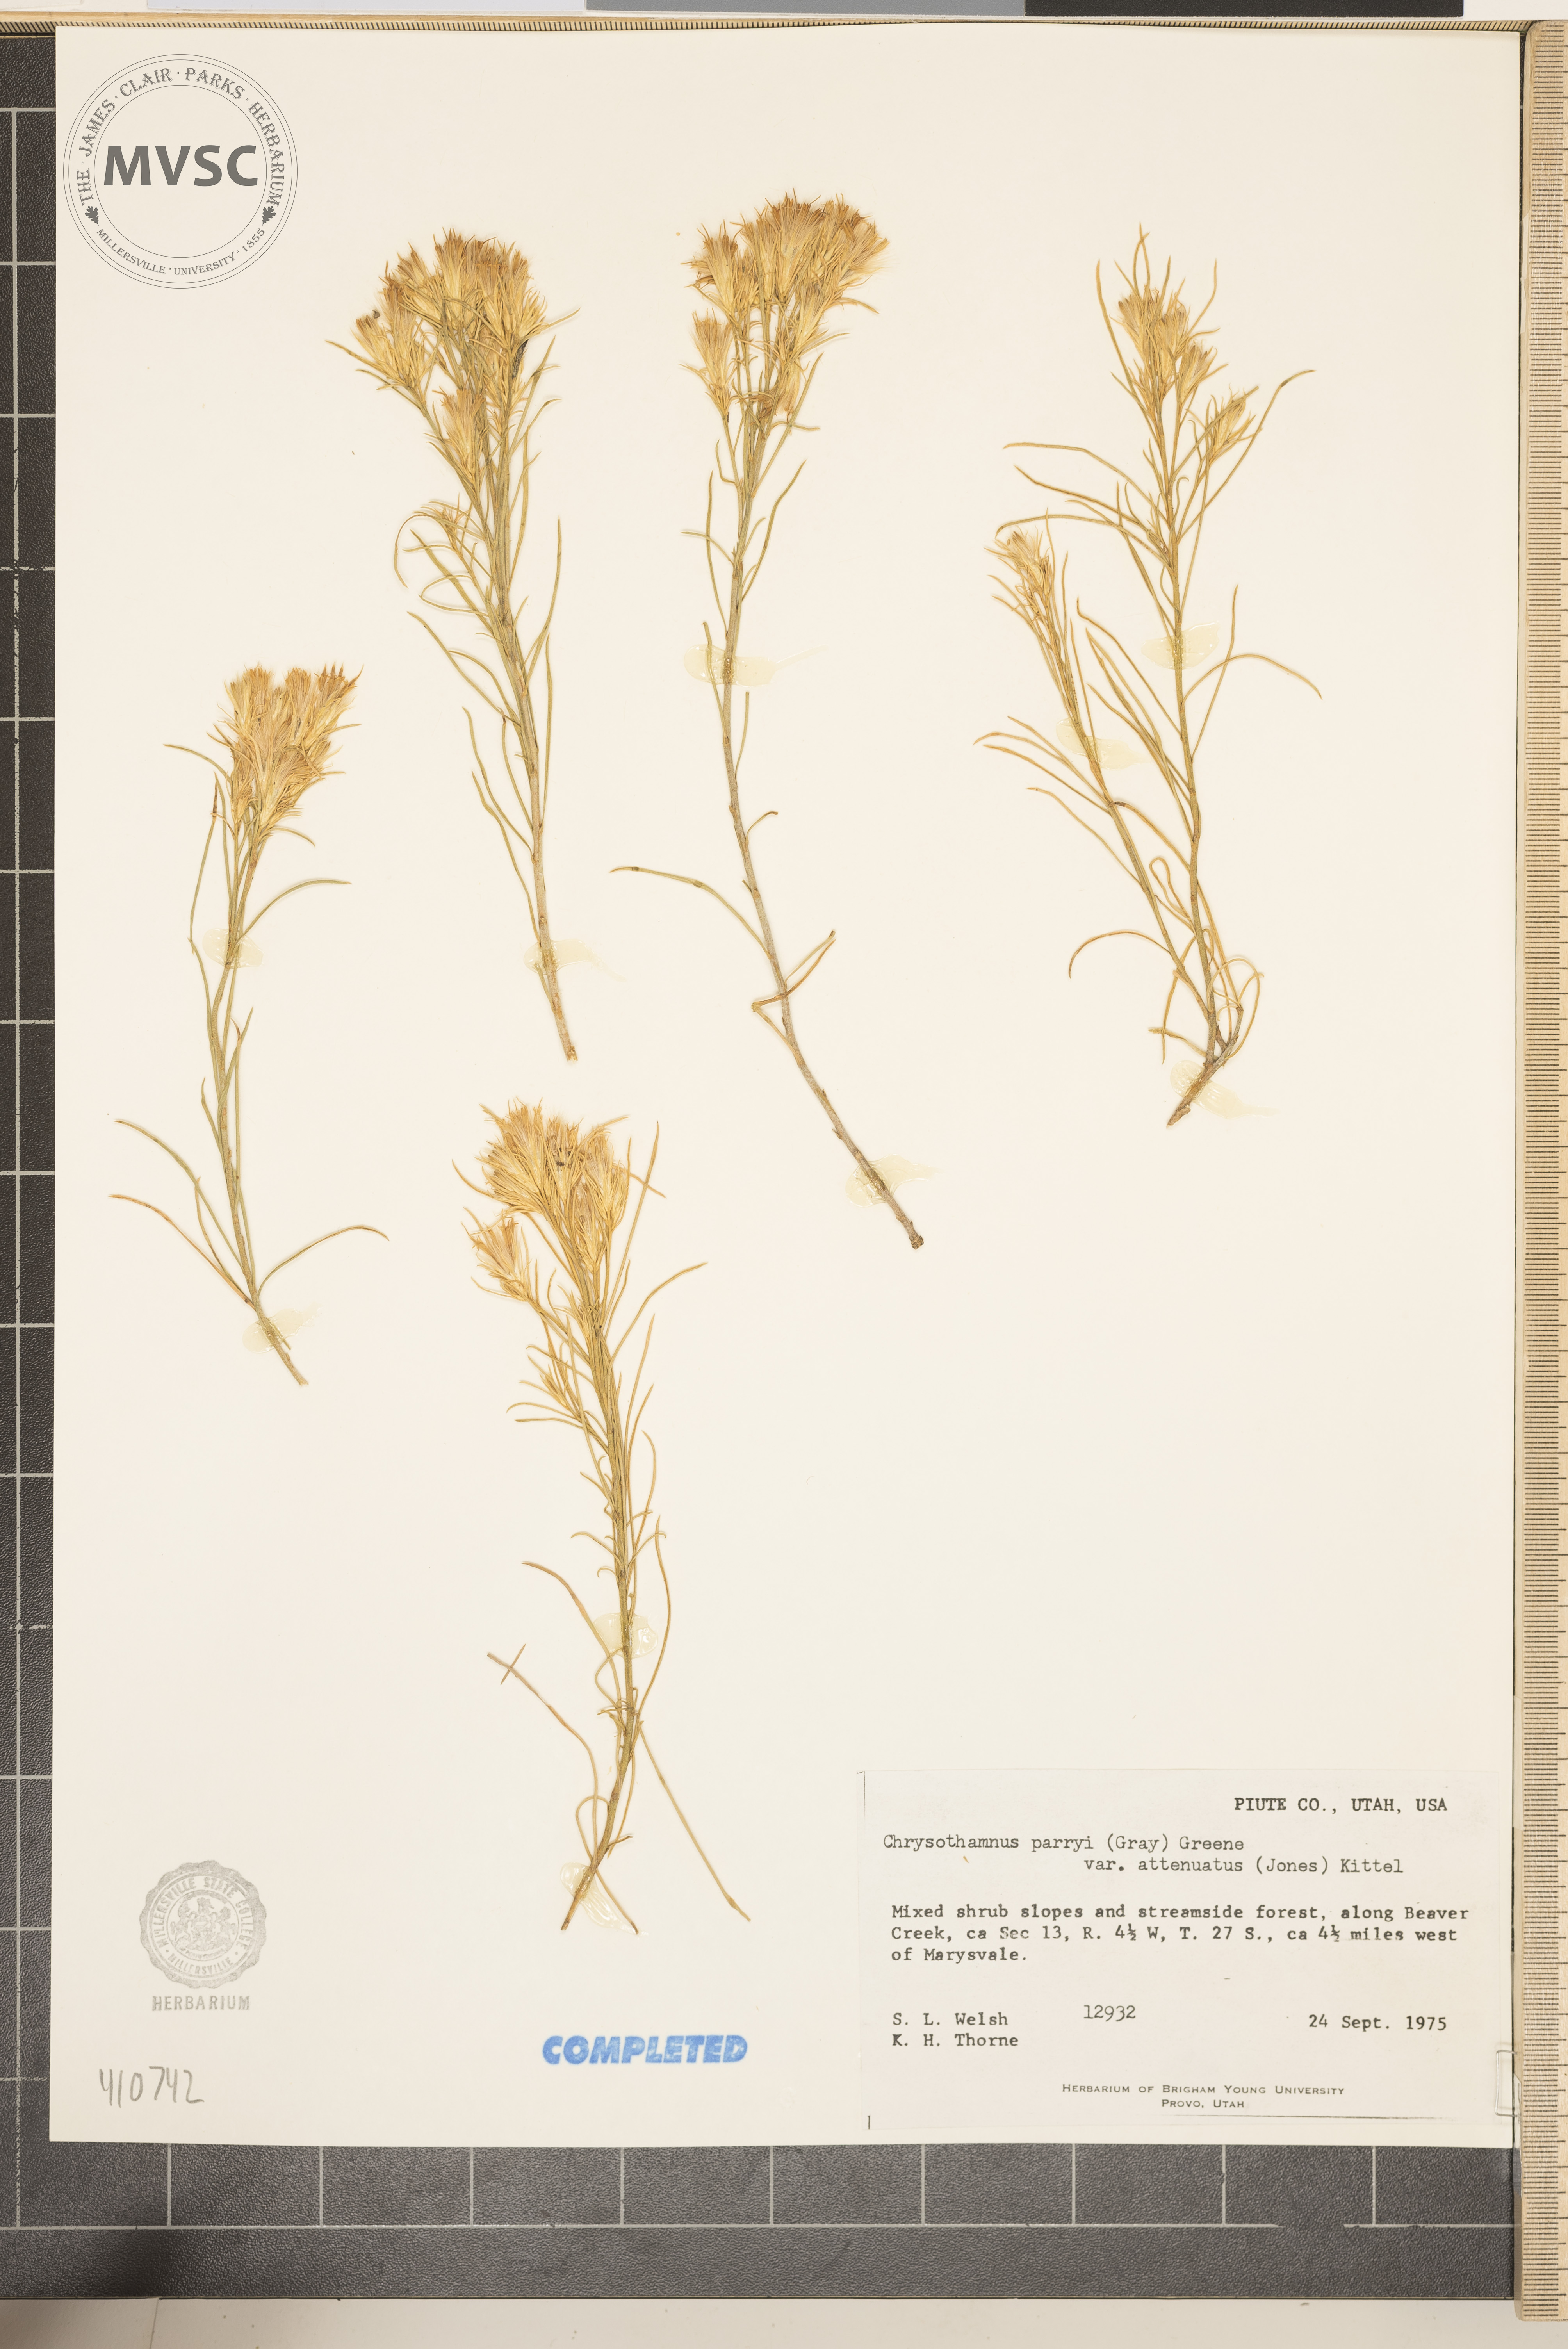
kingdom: Plantae
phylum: Tracheophyta
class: Magnoliopsida
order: Asterales
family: Asteraceae
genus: Ericameria
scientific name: Ericameria parryi
